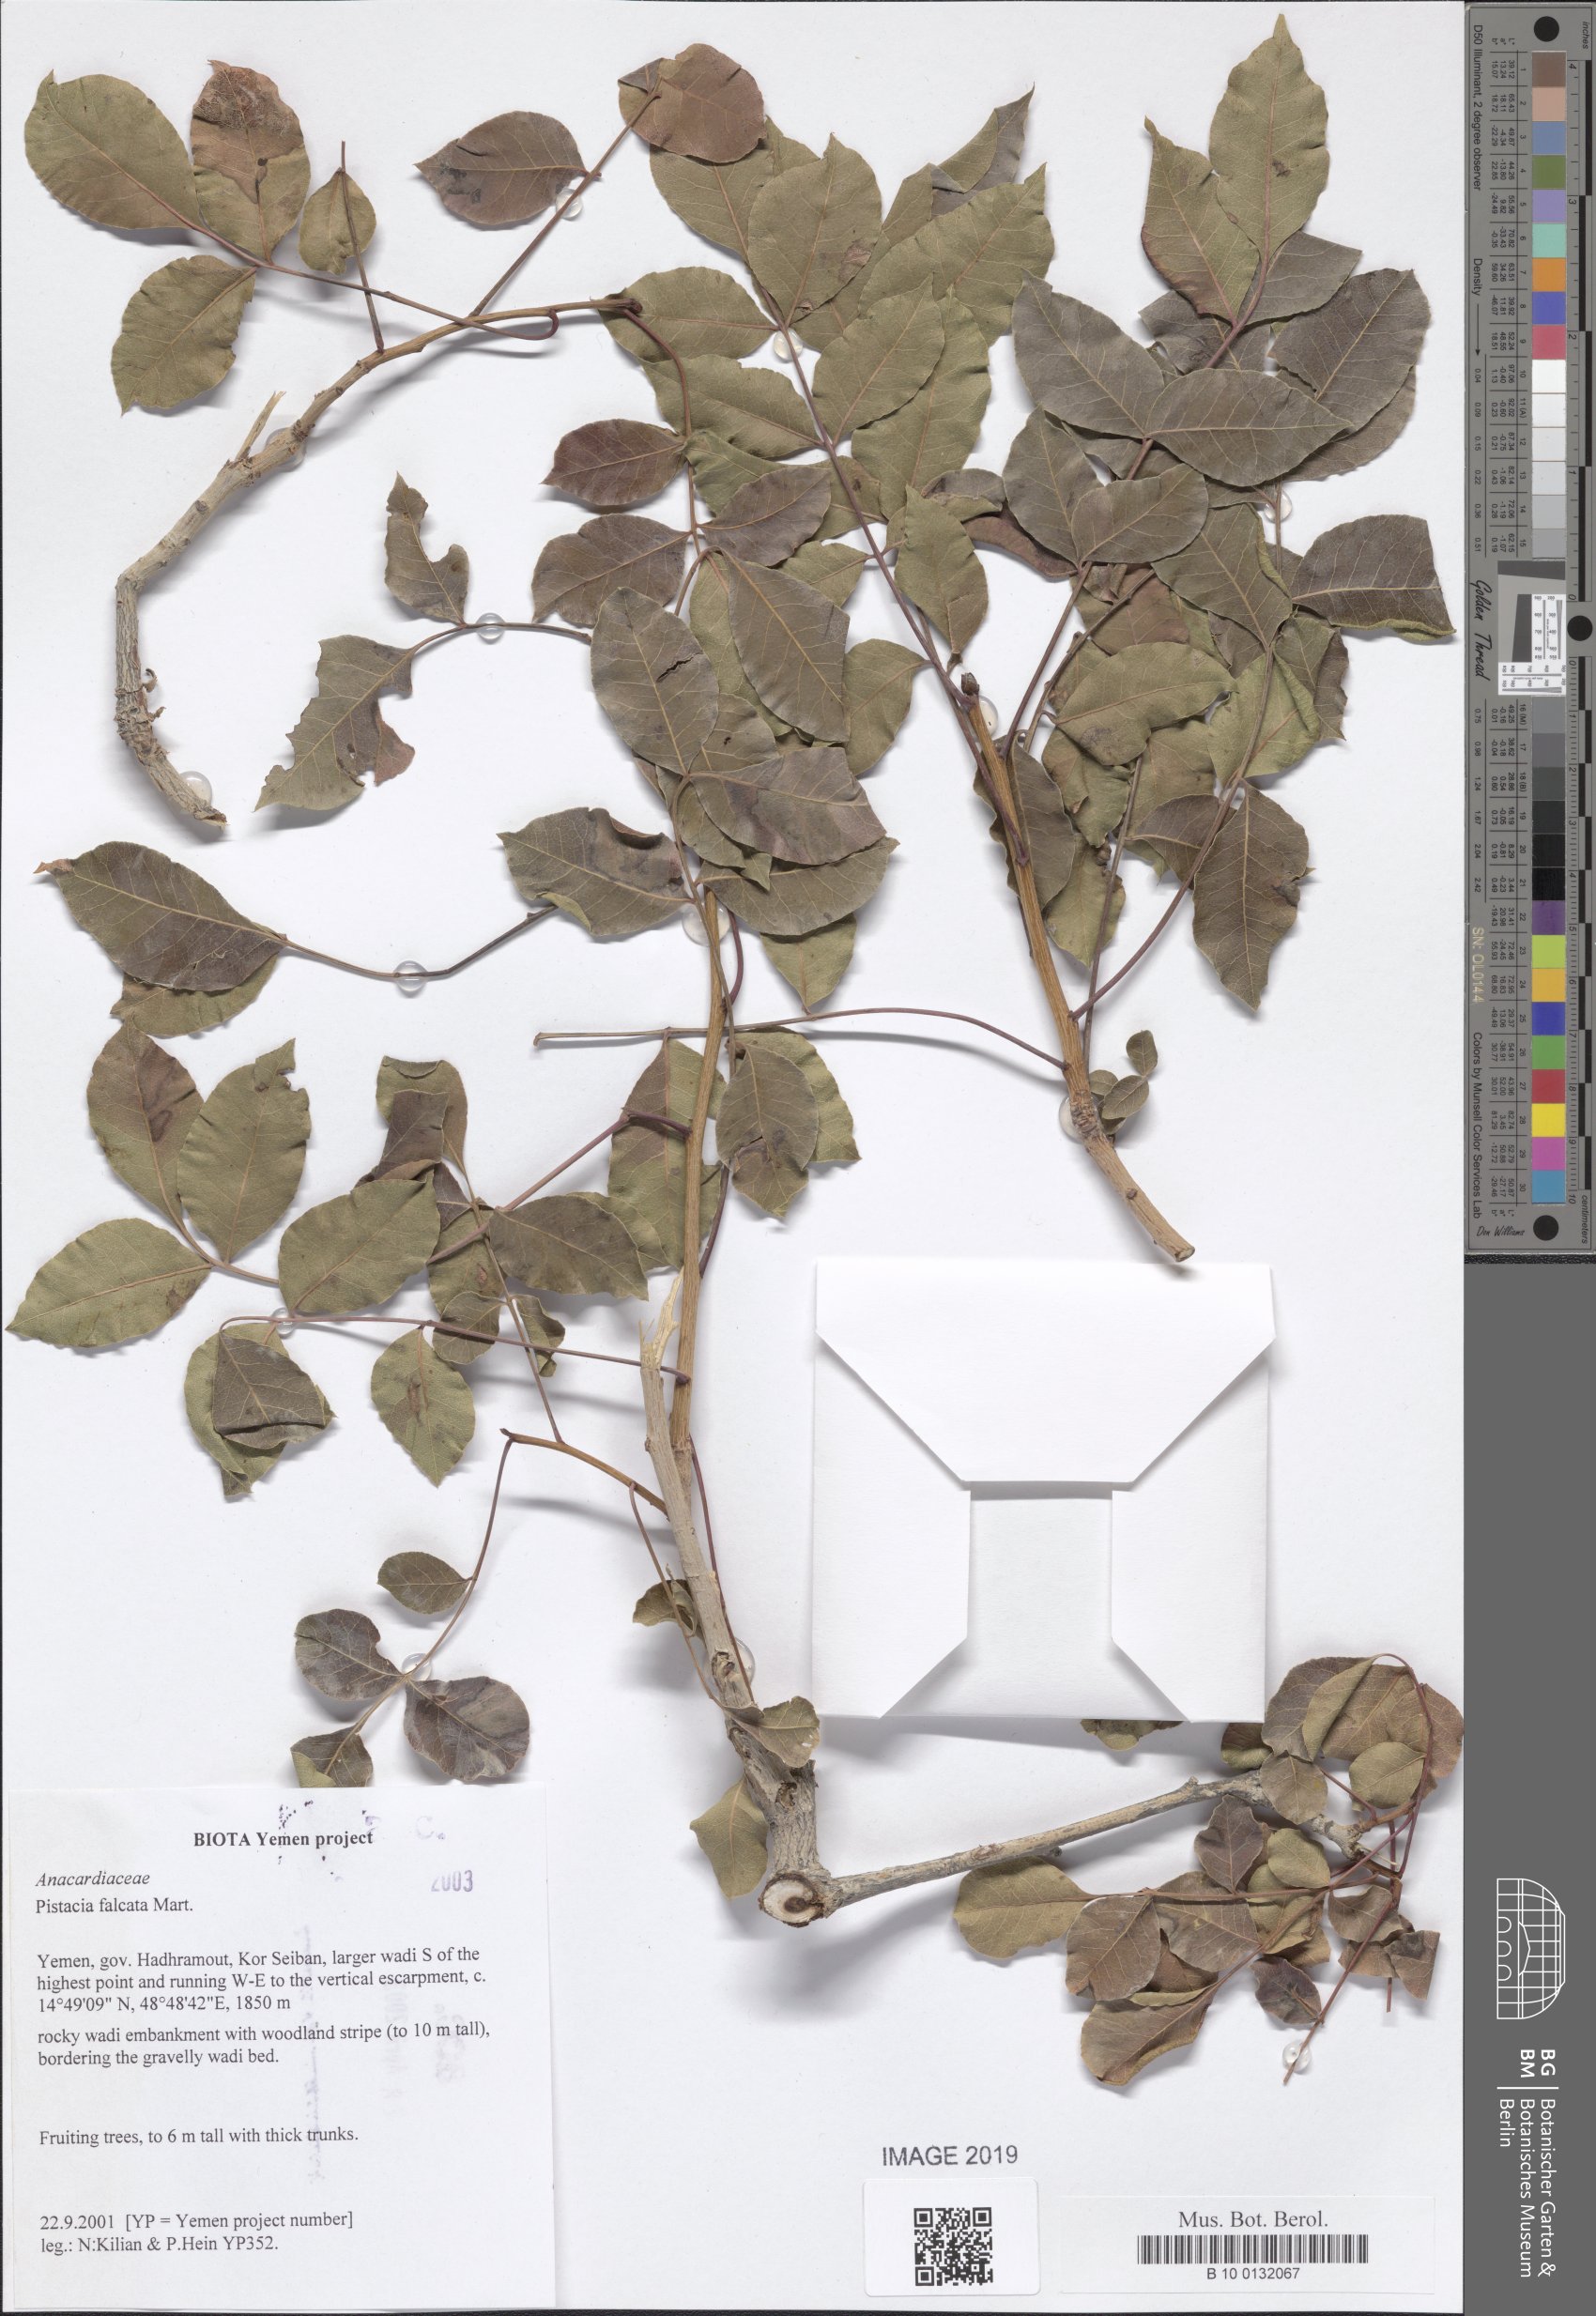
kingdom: Plantae
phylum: Tracheophyta
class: Magnoliopsida
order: Sapindales
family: Anacardiaceae
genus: Pistacia
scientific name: Pistacia falcata
